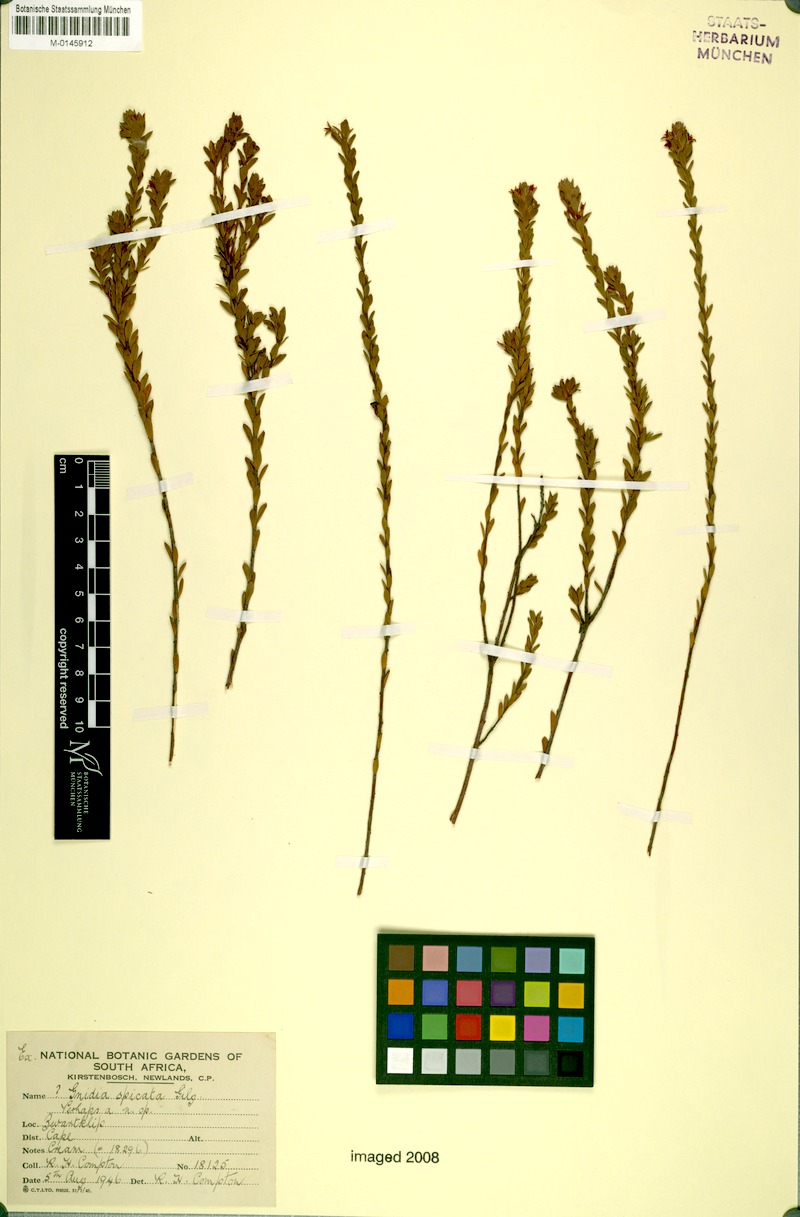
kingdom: Plantae
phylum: Tracheophyta
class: Magnoliopsida
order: Malvales
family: Thymelaeaceae
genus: Gnidia
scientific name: Gnidia spicata
